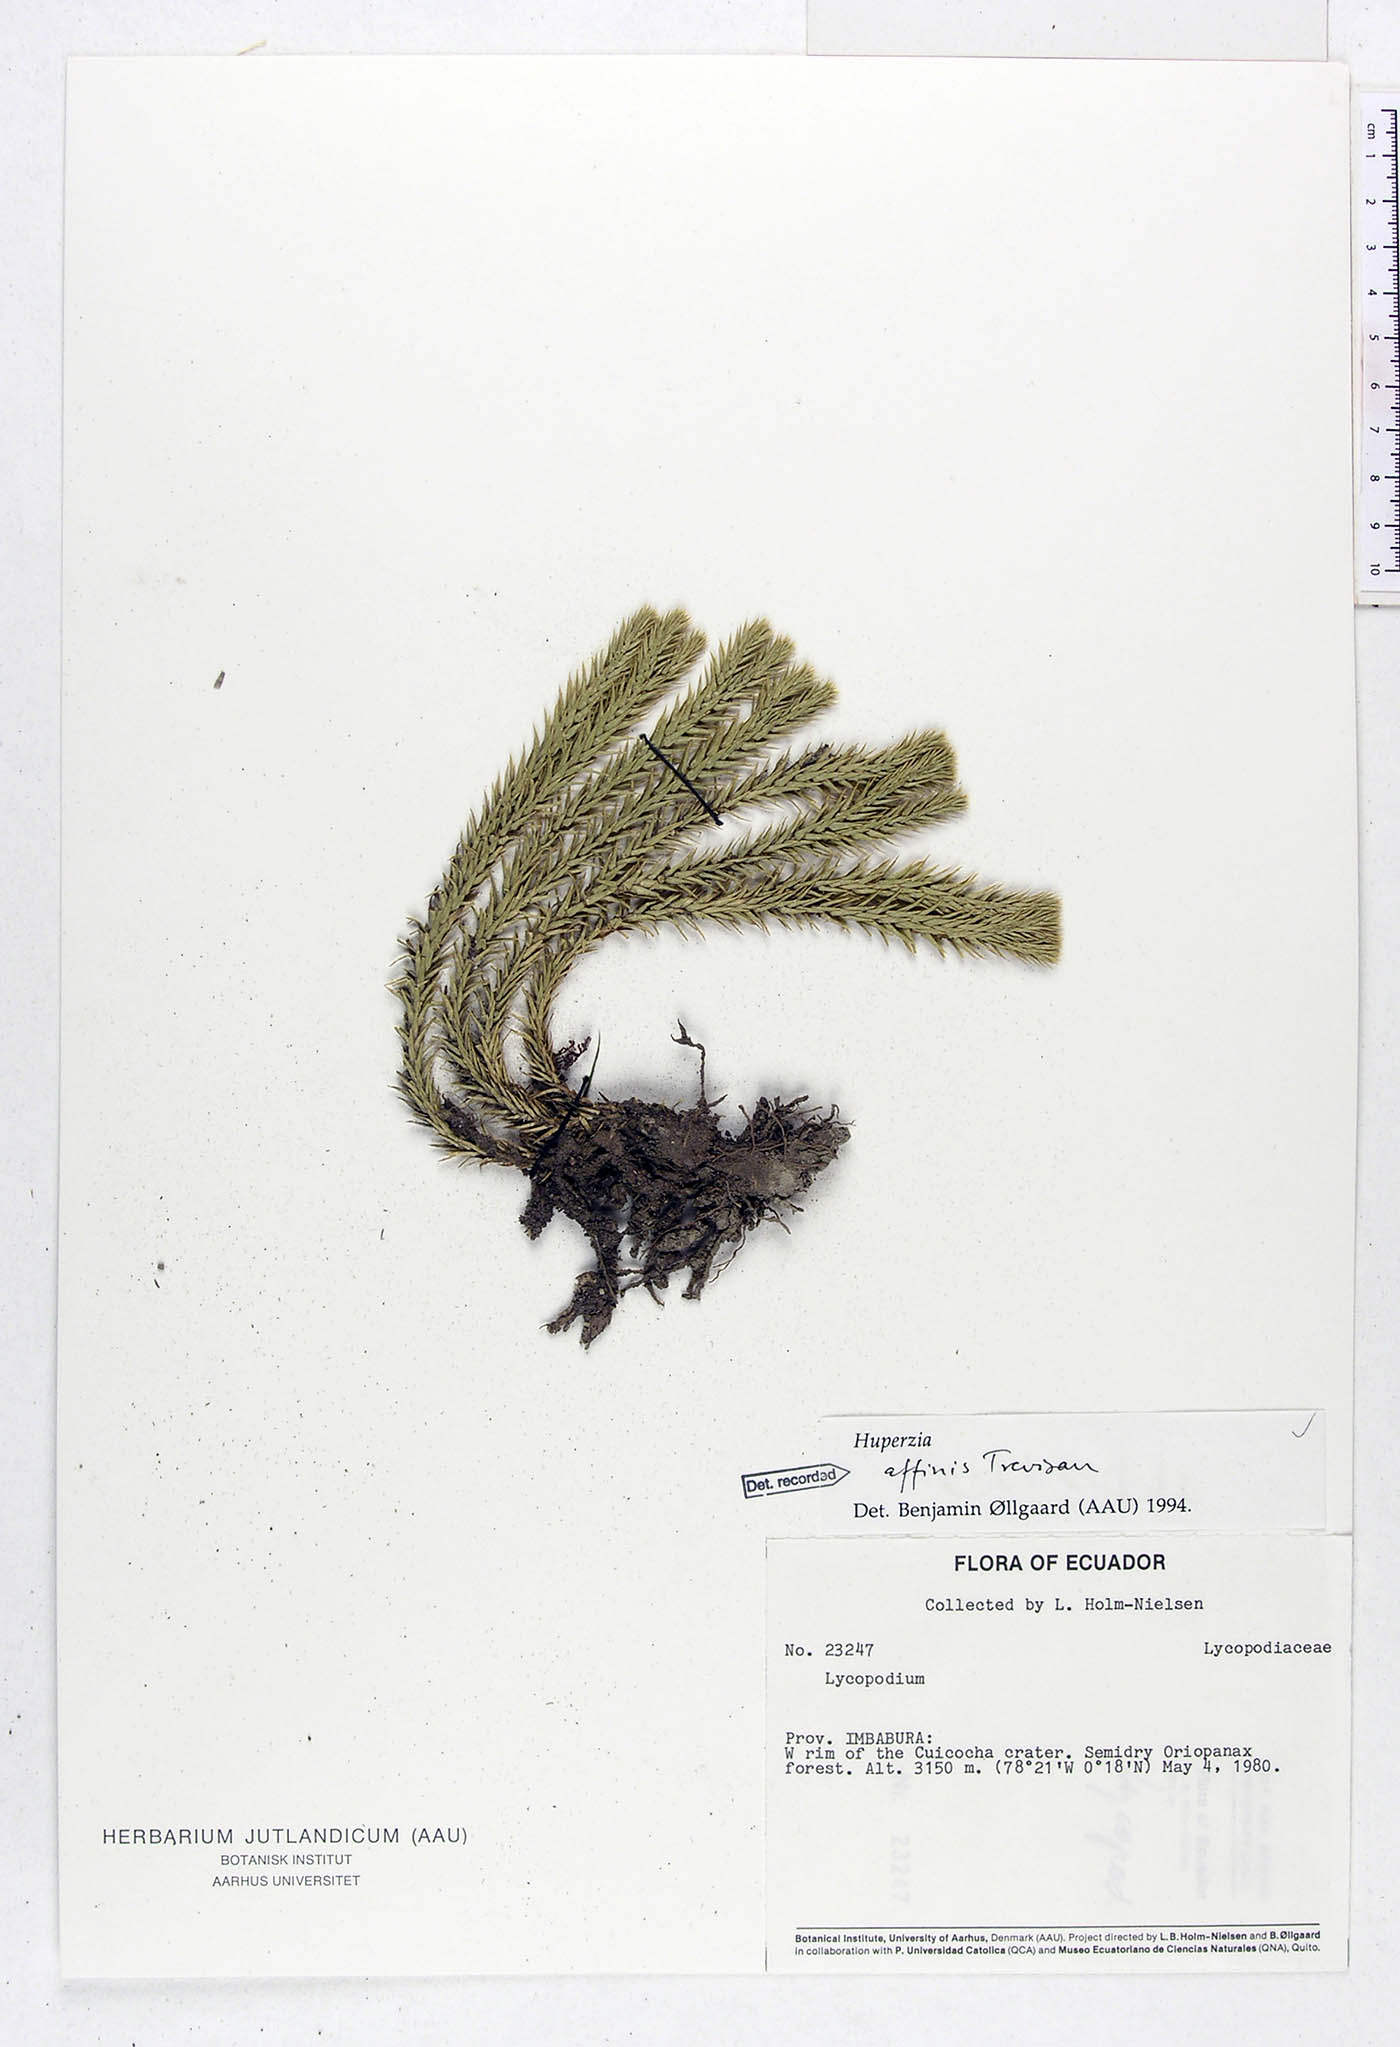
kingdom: Plantae
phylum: Tracheophyta
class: Lycopodiopsida
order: Lycopodiales
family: Lycopodiaceae
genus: Phlegmariurus
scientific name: Phlegmariurus affinis
